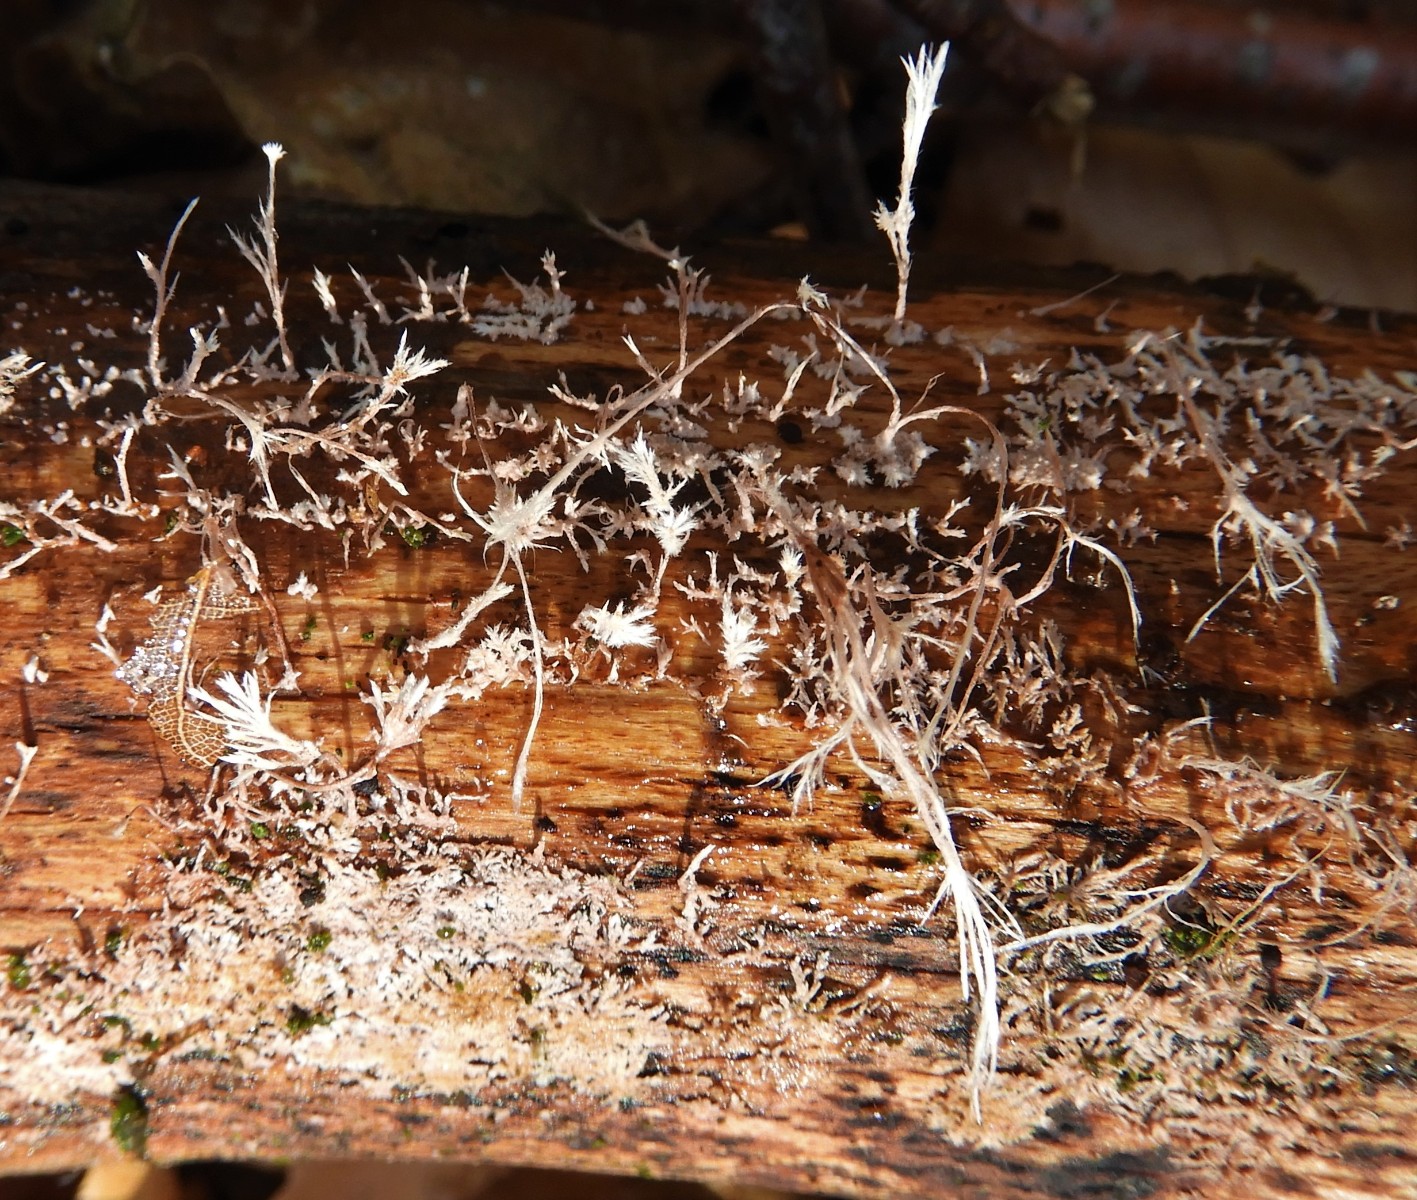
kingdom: Fungi
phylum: Basidiomycota
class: Agaricomycetes
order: Polyporales
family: Steccherinaceae
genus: Steccherinum
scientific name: Steccherinum fimbriatum
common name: trådet skønpig
